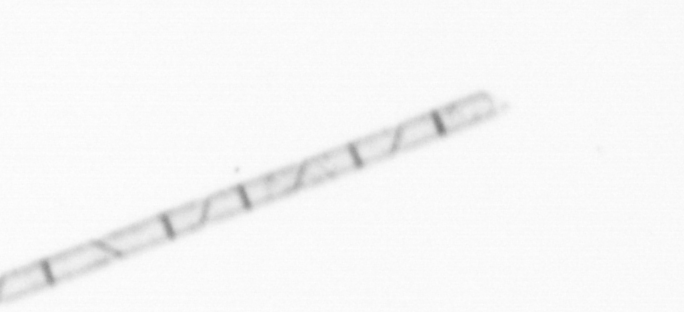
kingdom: Chromista
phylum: Ochrophyta
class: Bacillariophyceae
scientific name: Bacillariophyceae
